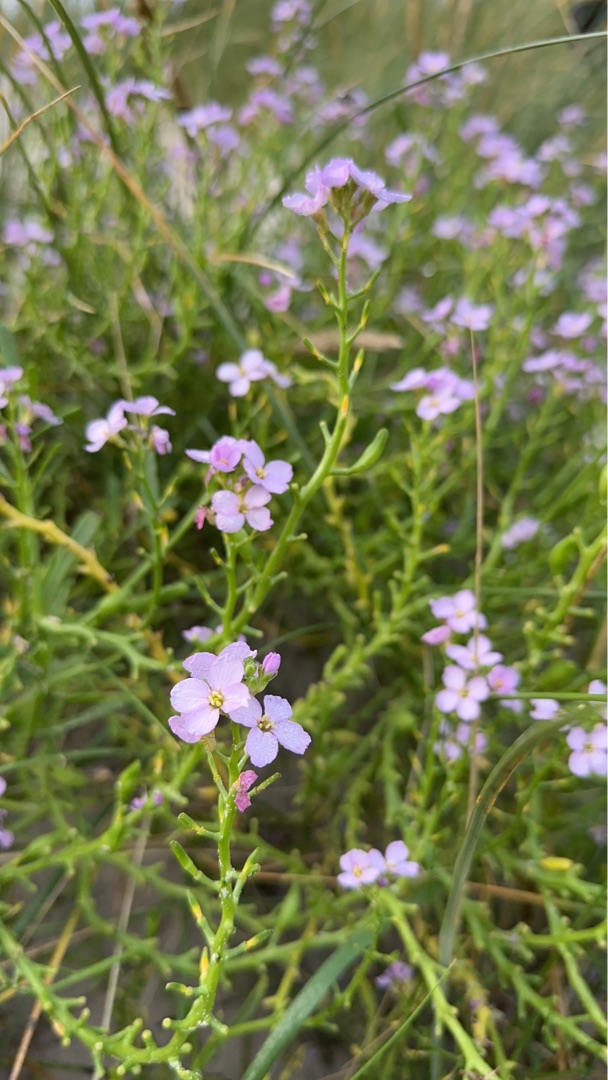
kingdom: Plantae
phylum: Tracheophyta
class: Magnoliopsida
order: Brassicales
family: Brassicaceae
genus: Cakile
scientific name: Cakile maritima
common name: Strandsennep
